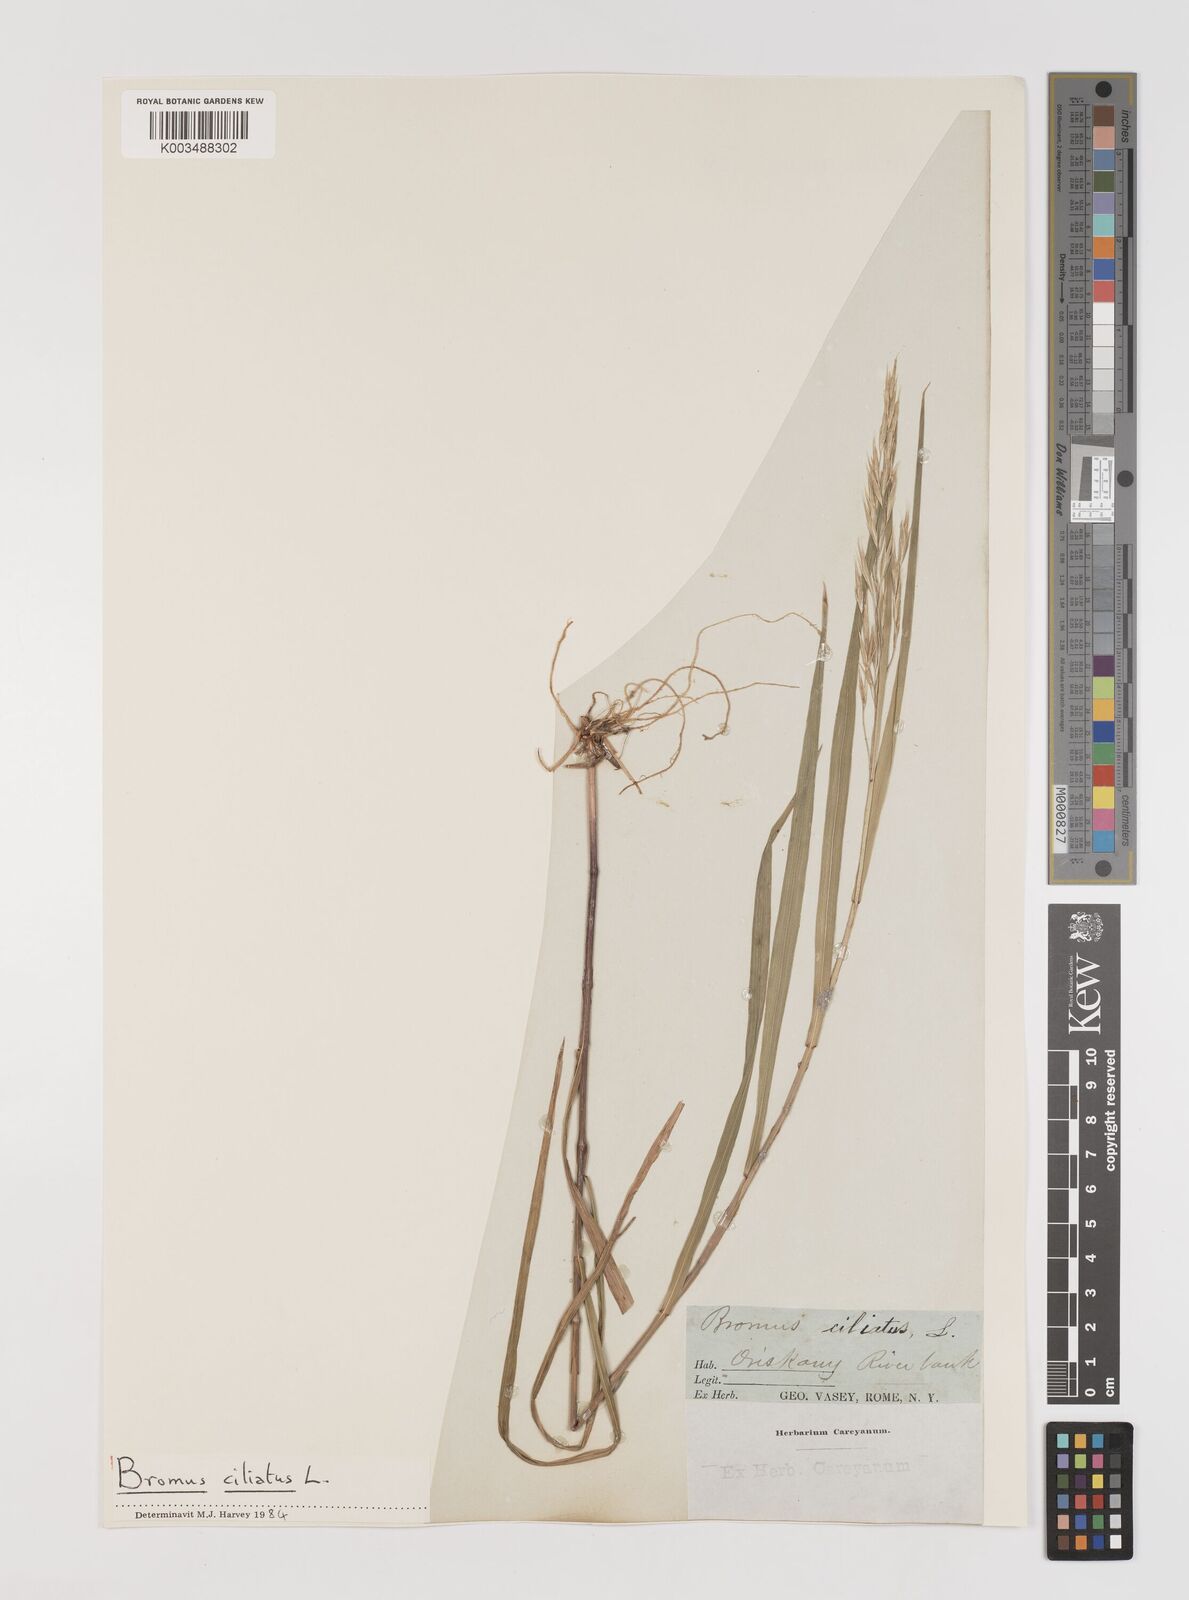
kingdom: Plantae
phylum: Tracheophyta
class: Liliopsida
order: Poales
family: Poaceae
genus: Bromus
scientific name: Bromus pubescens
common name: Hairy wood brome grass
